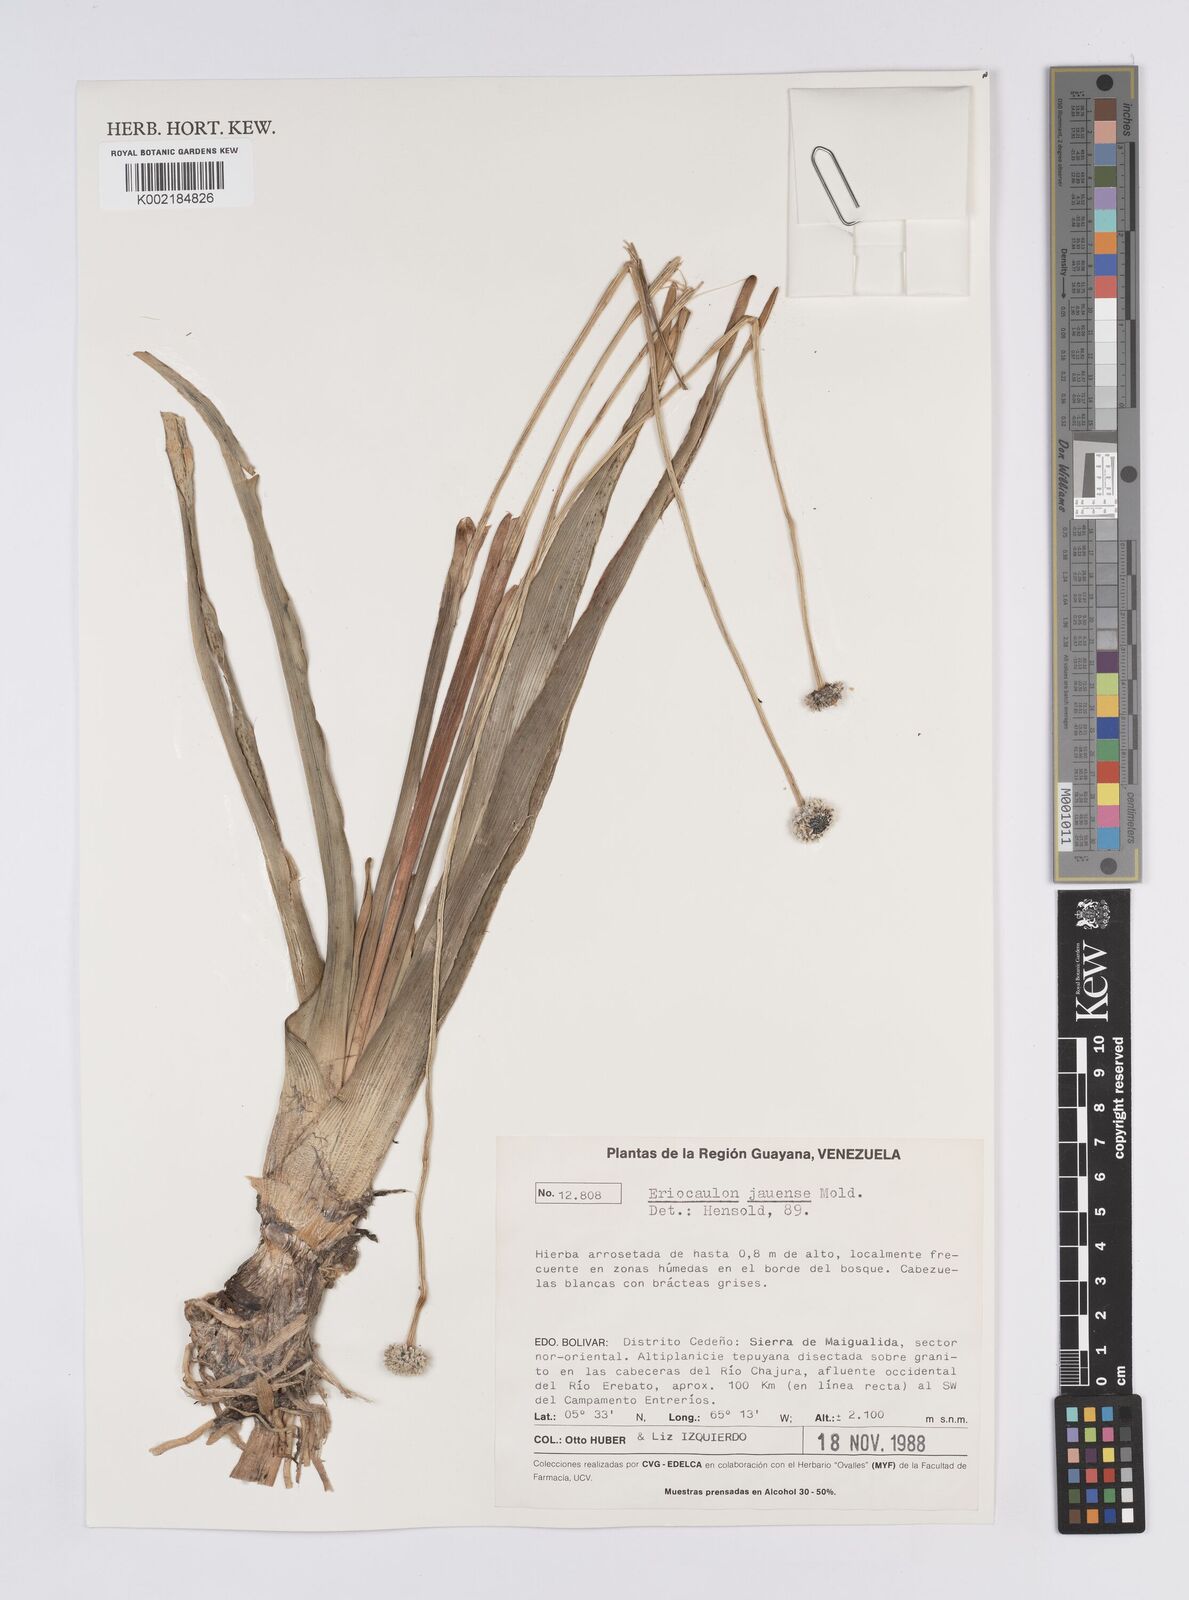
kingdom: Plantae
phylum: Tracheophyta
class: Liliopsida
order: Poales
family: Eriocaulaceae
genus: Eriocaulon
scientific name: Eriocaulon jauense
